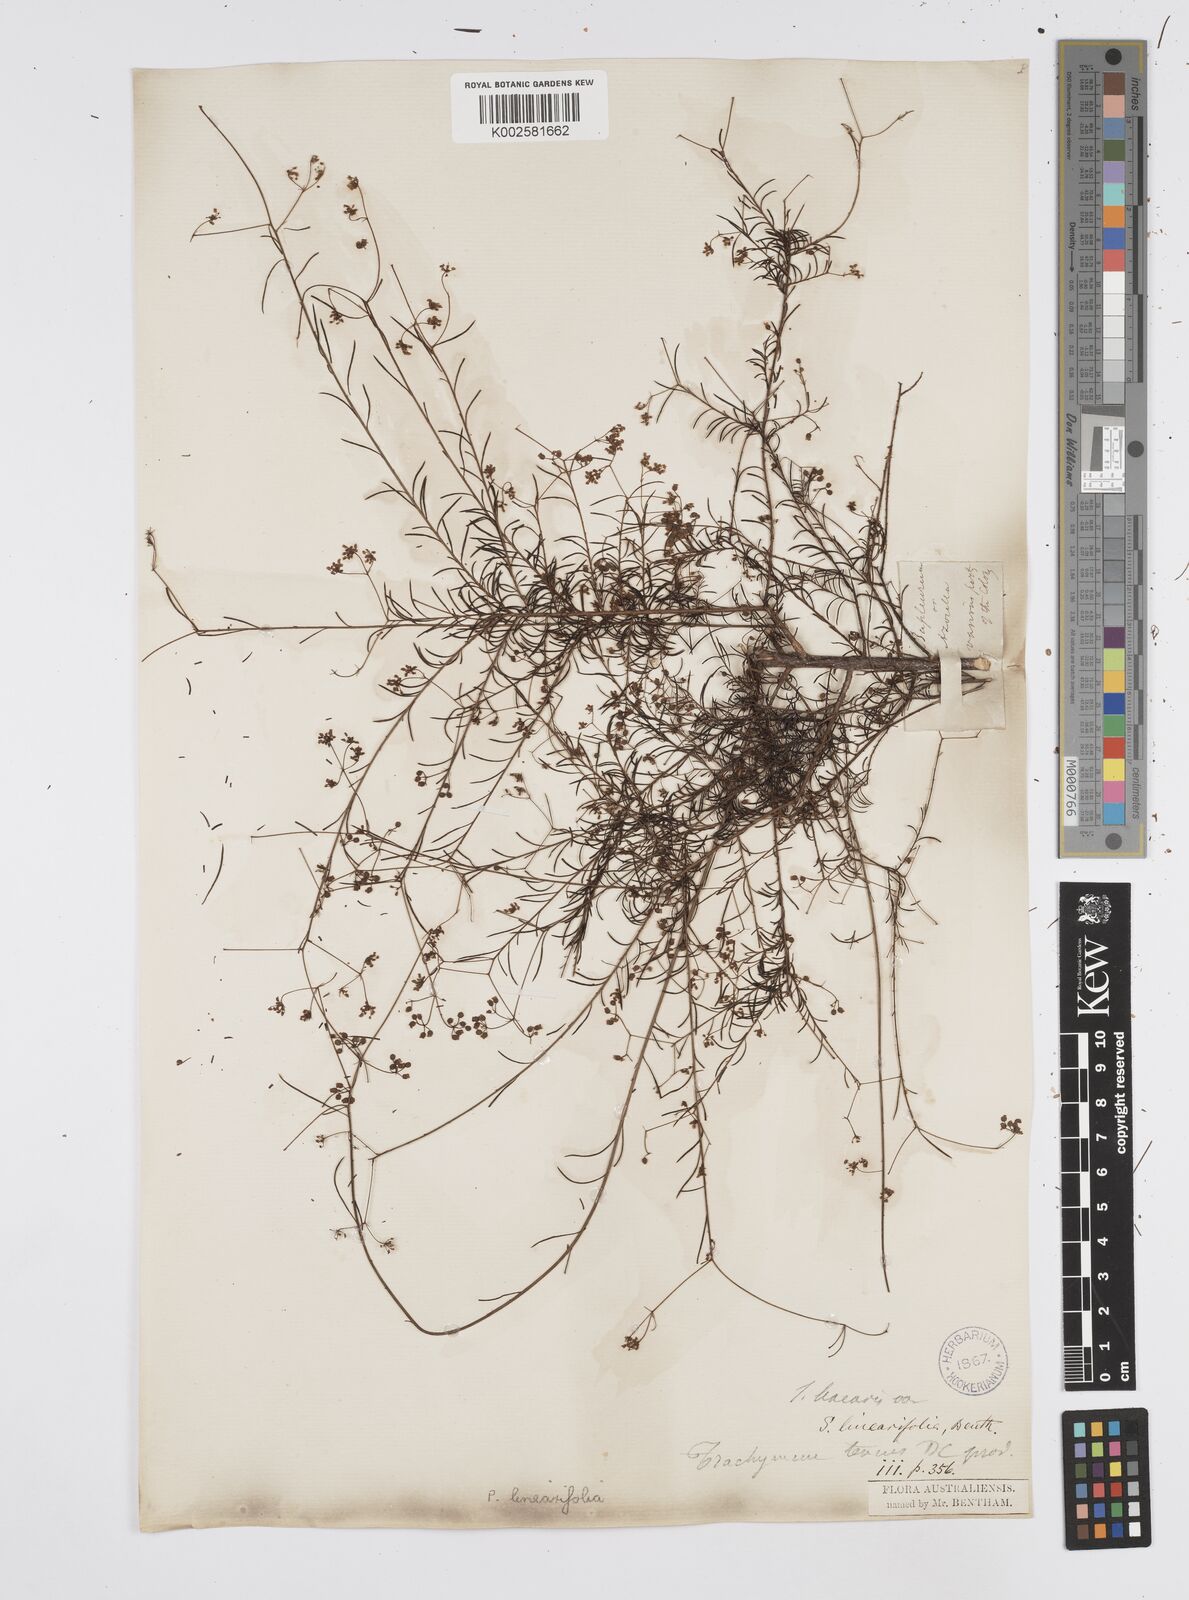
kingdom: Plantae
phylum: Tracheophyta
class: Magnoliopsida
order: Apiales
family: Apiaceae
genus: Platysace
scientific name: Platysace linearifolia
